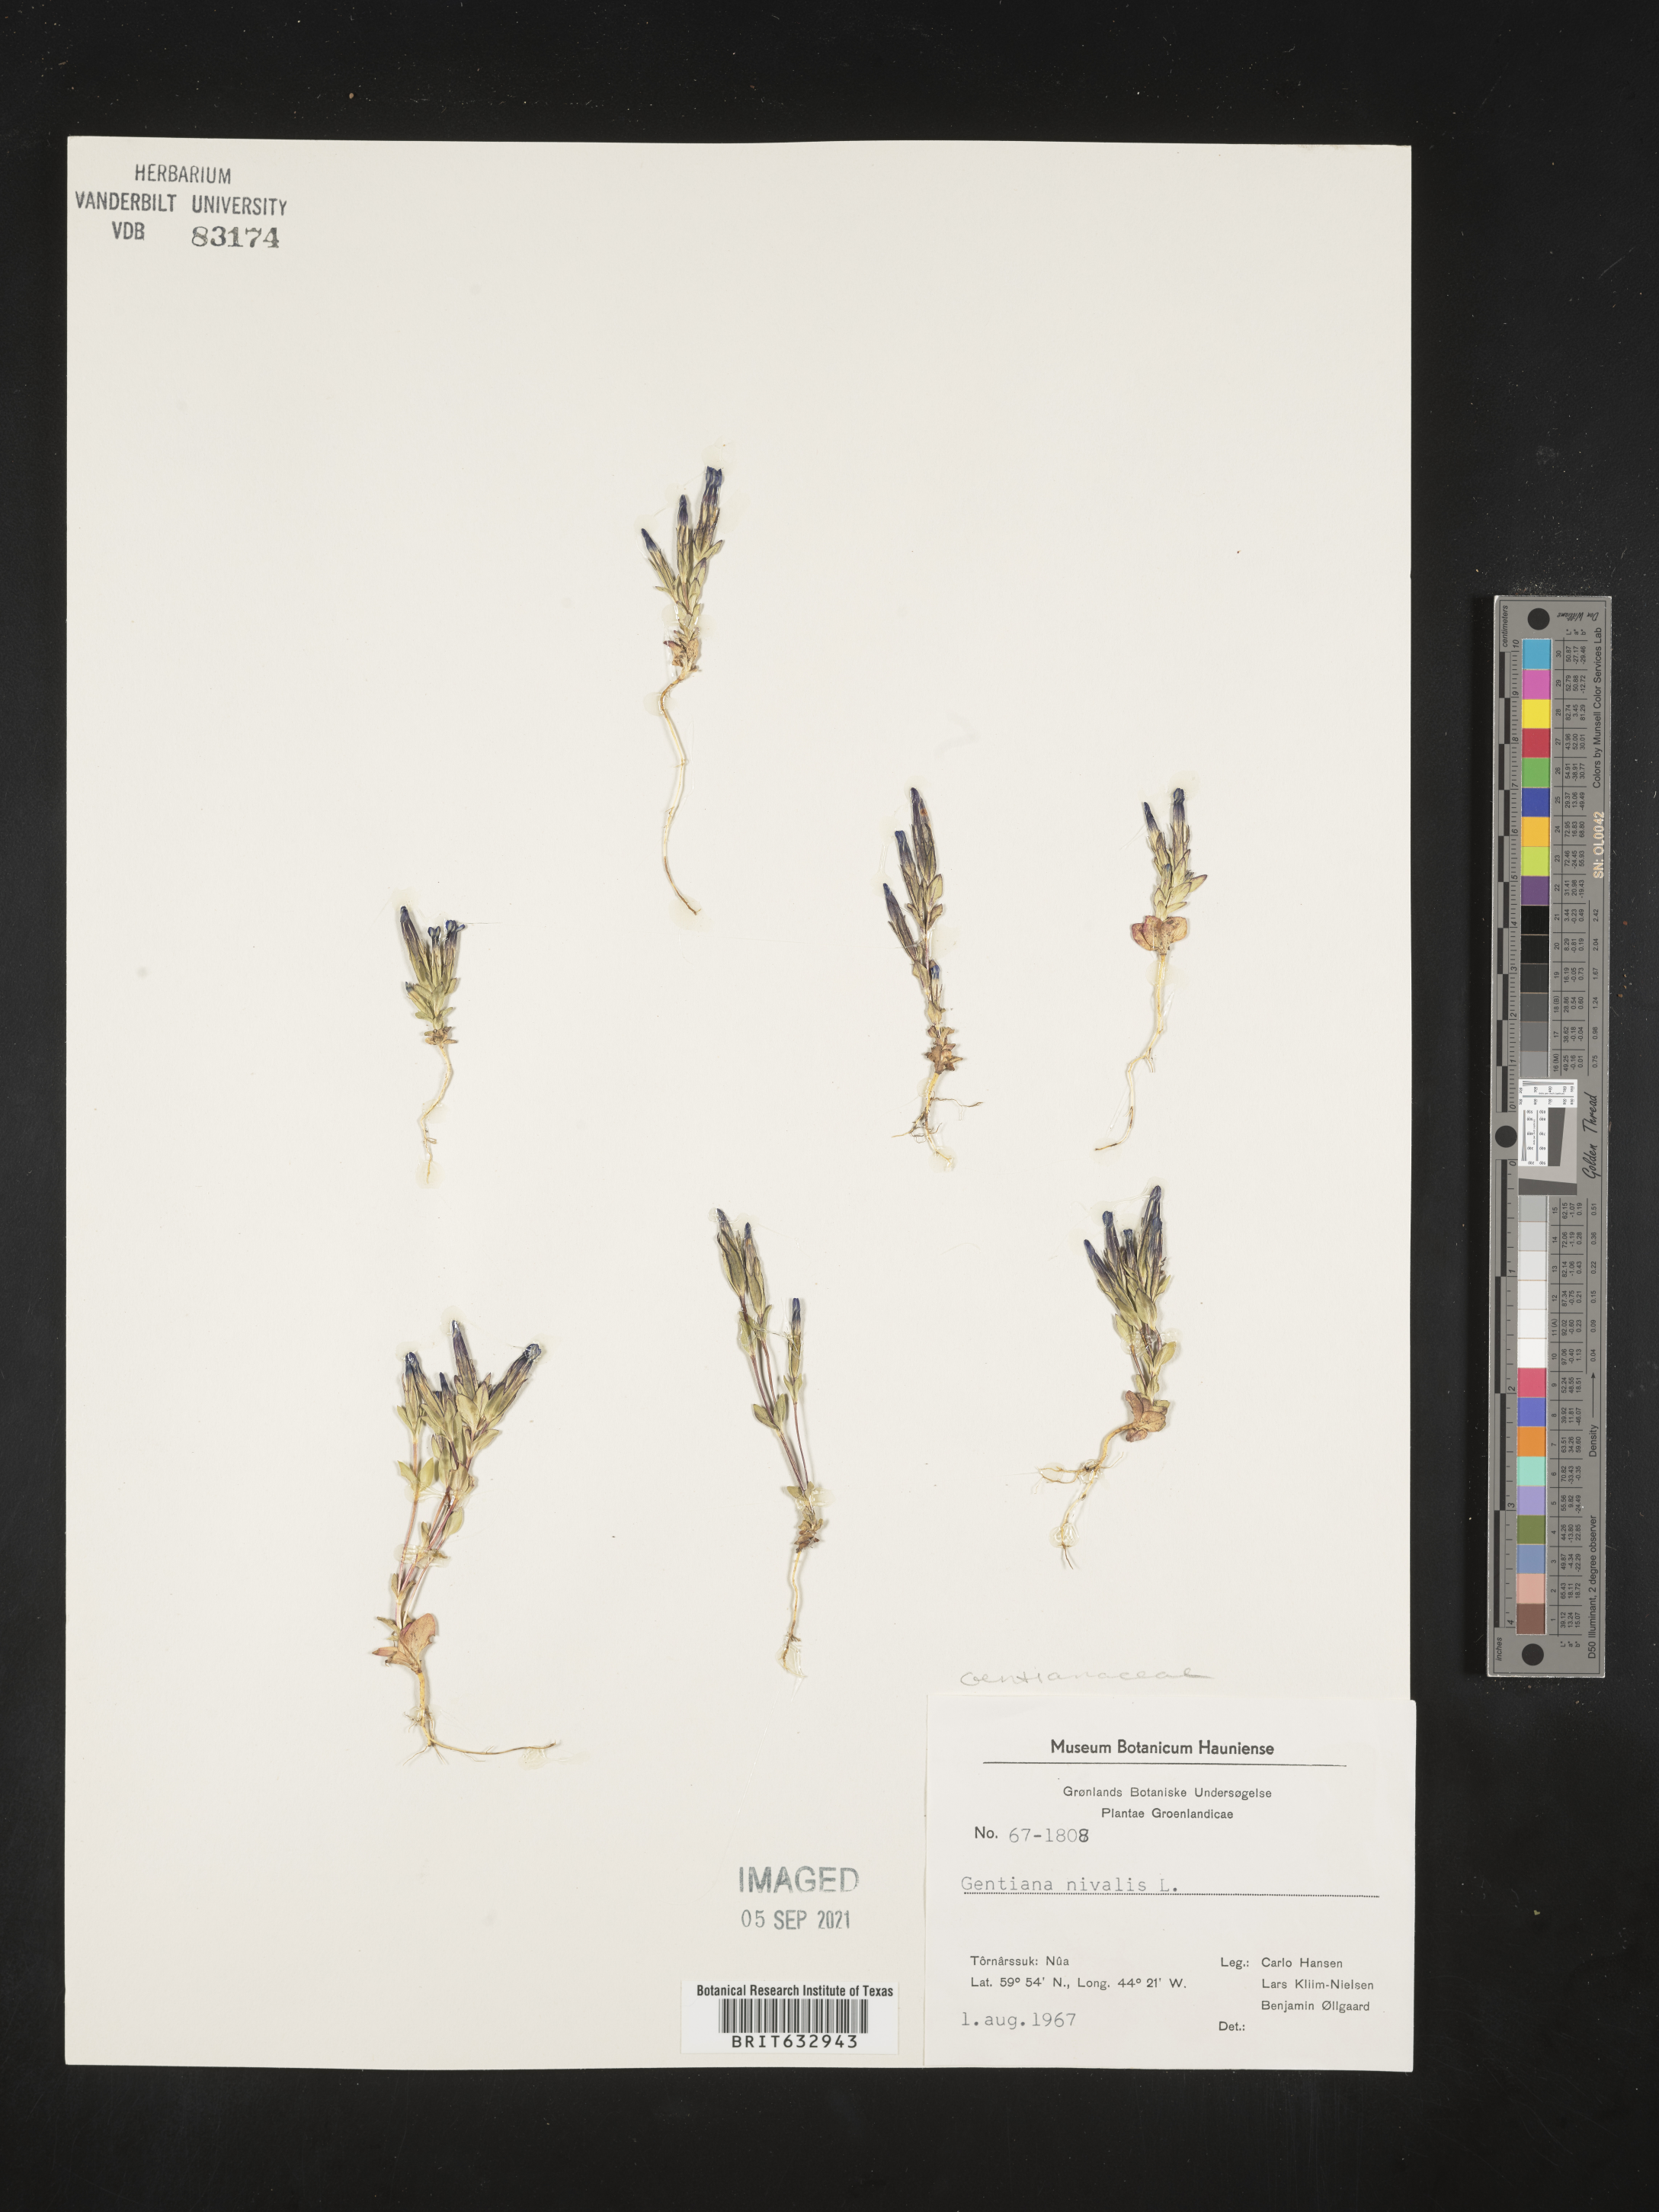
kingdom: Plantae
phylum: Tracheophyta
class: Magnoliopsida
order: Gentianales
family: Gentianaceae
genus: Gentiana
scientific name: Gentiana
